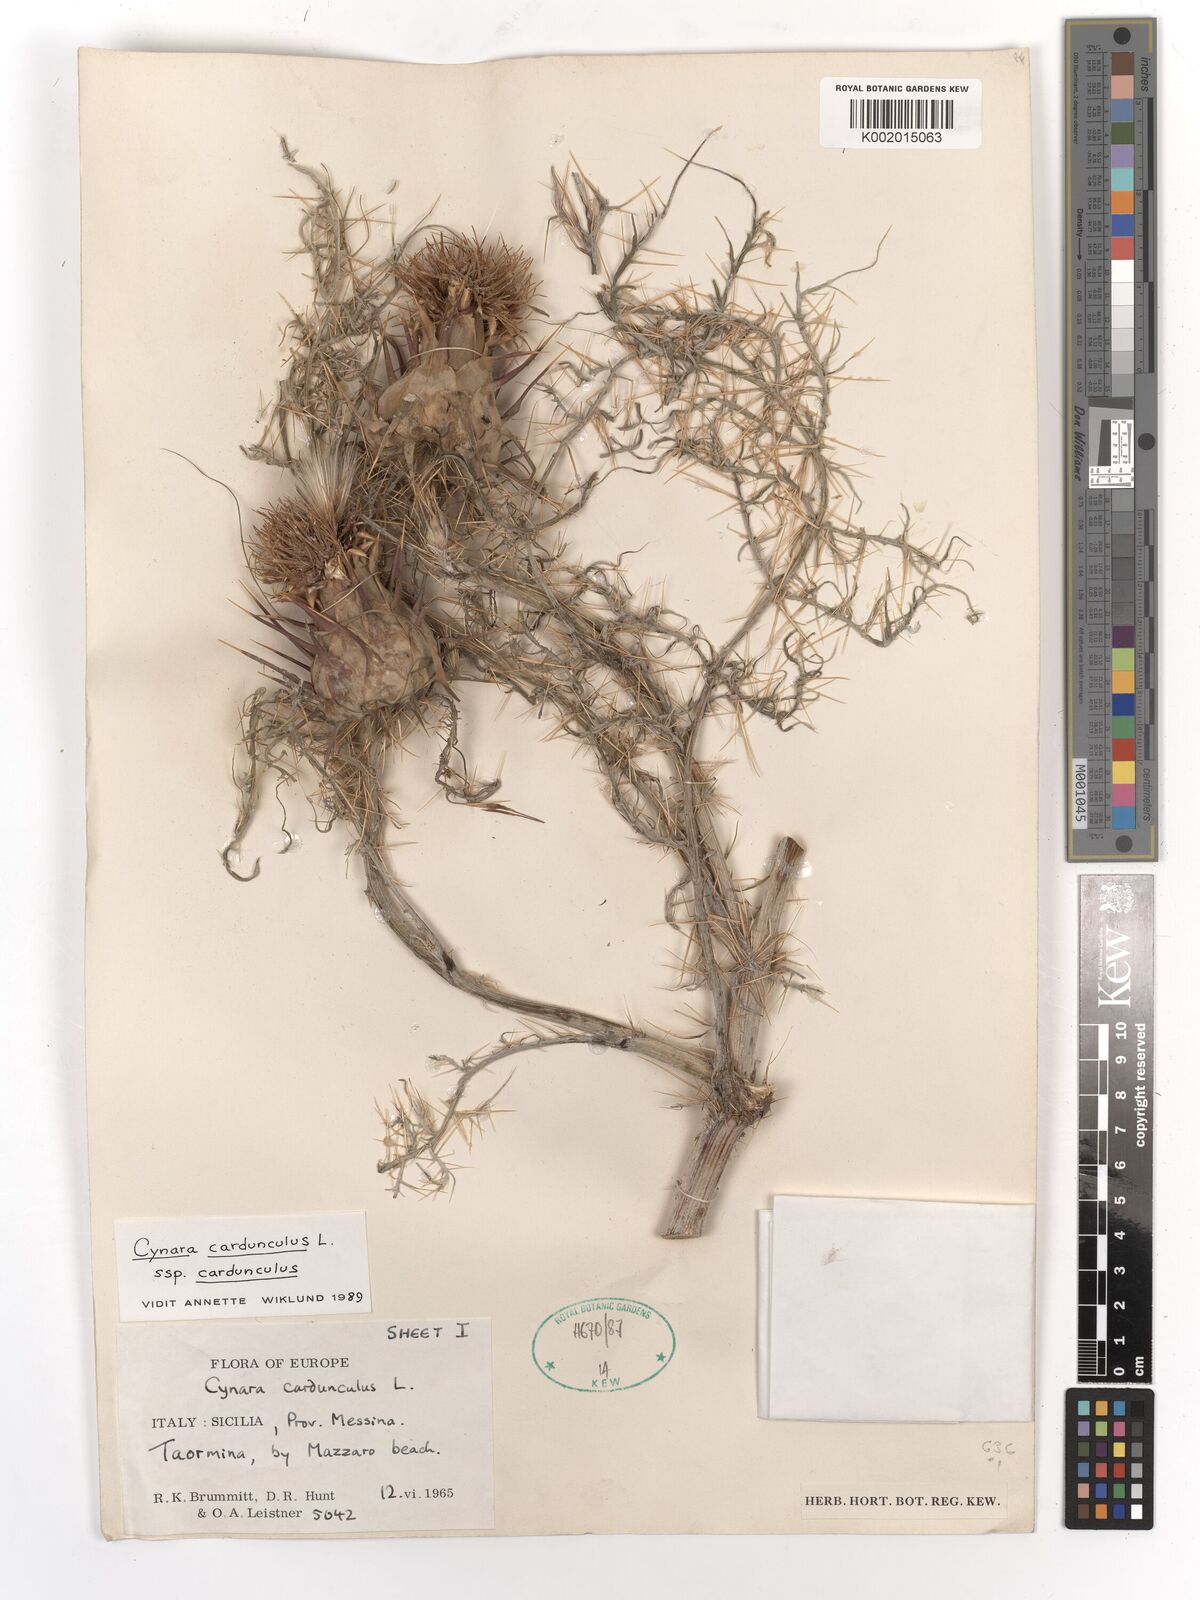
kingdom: Plantae
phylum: Tracheophyta
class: Magnoliopsida
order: Asterales
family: Asteraceae
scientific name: Asteraceae
